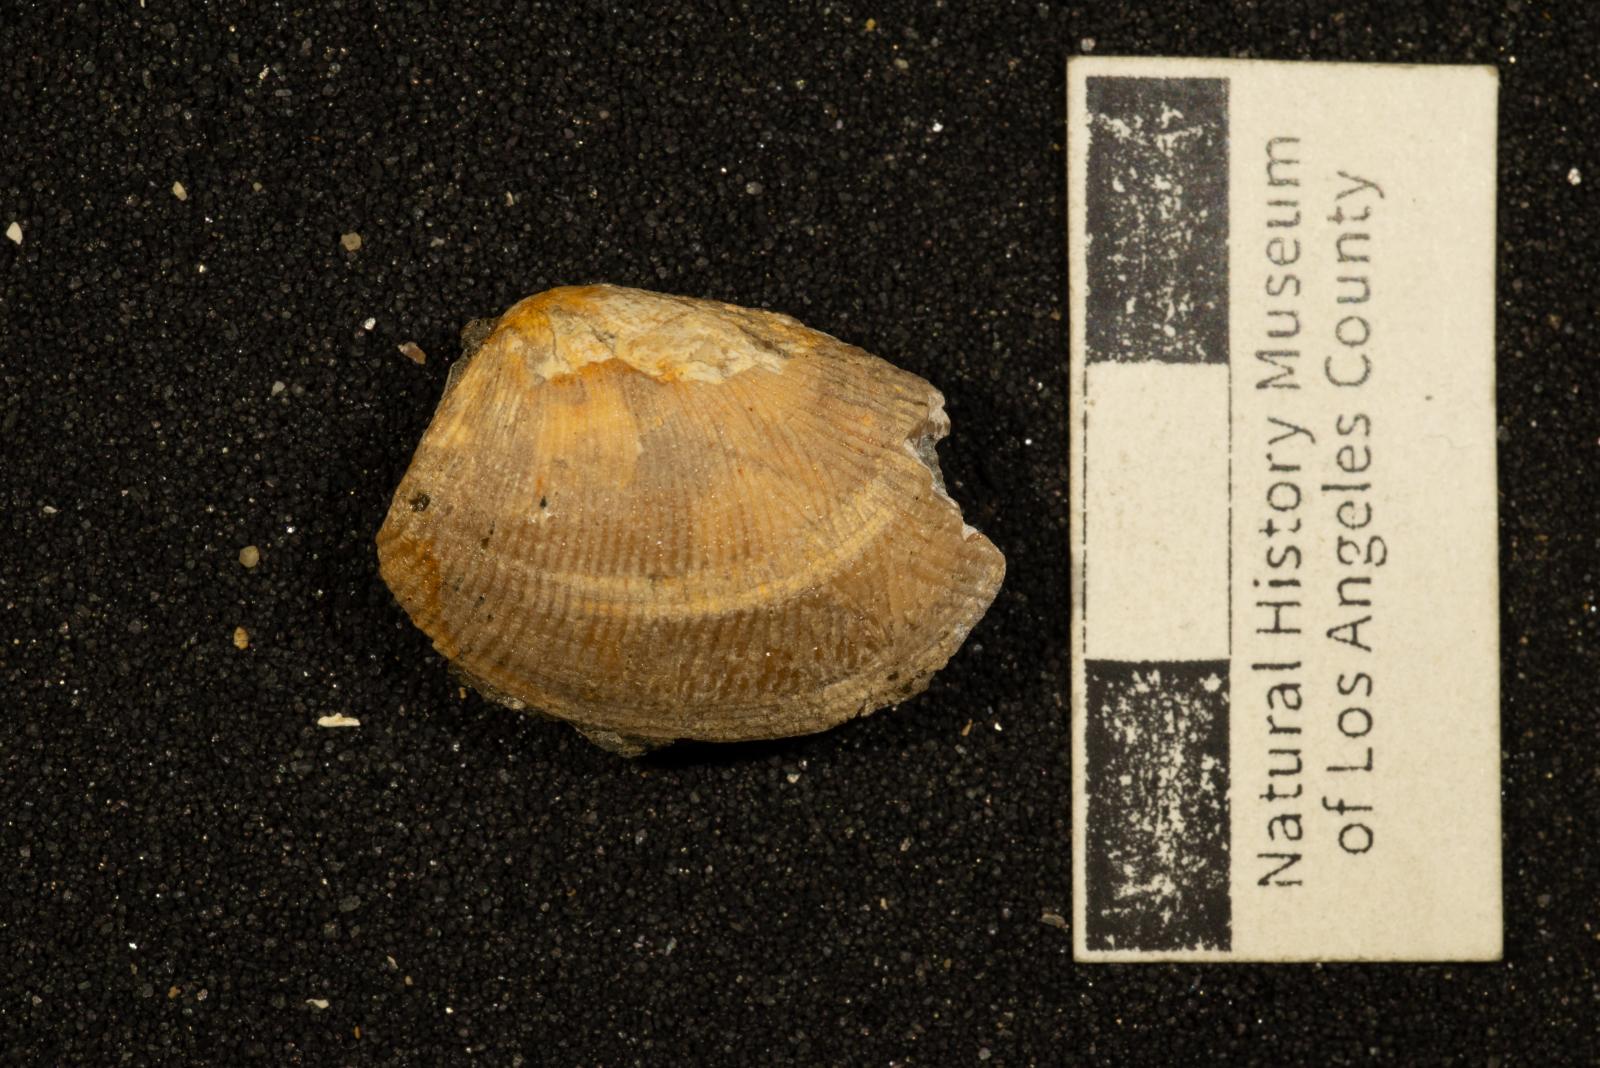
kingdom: Animalia
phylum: Mollusca
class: Bivalvia
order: Nuculida
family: Nuculidae
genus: Acila
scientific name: Acila rosaria
